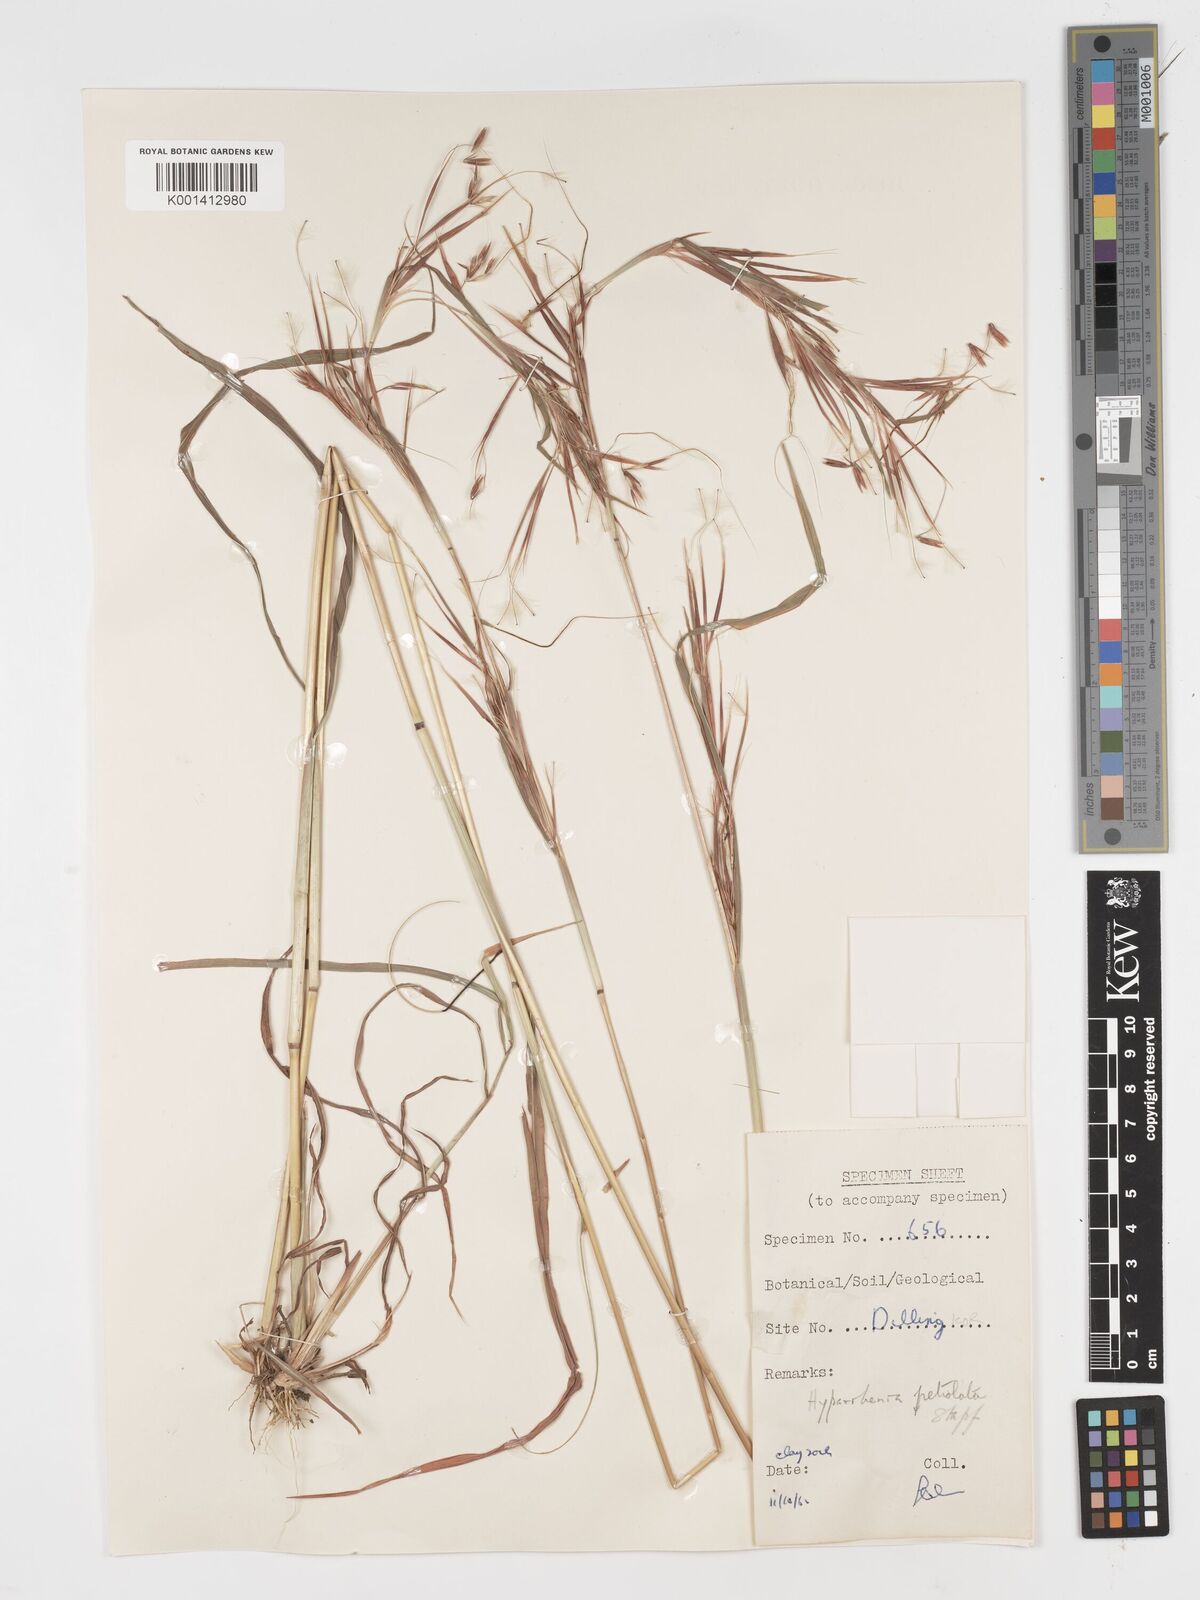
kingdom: Plantae
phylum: Tracheophyta
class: Liliopsida
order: Poales
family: Poaceae
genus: Hyparrhenia
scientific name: Hyparrhenia confinis
